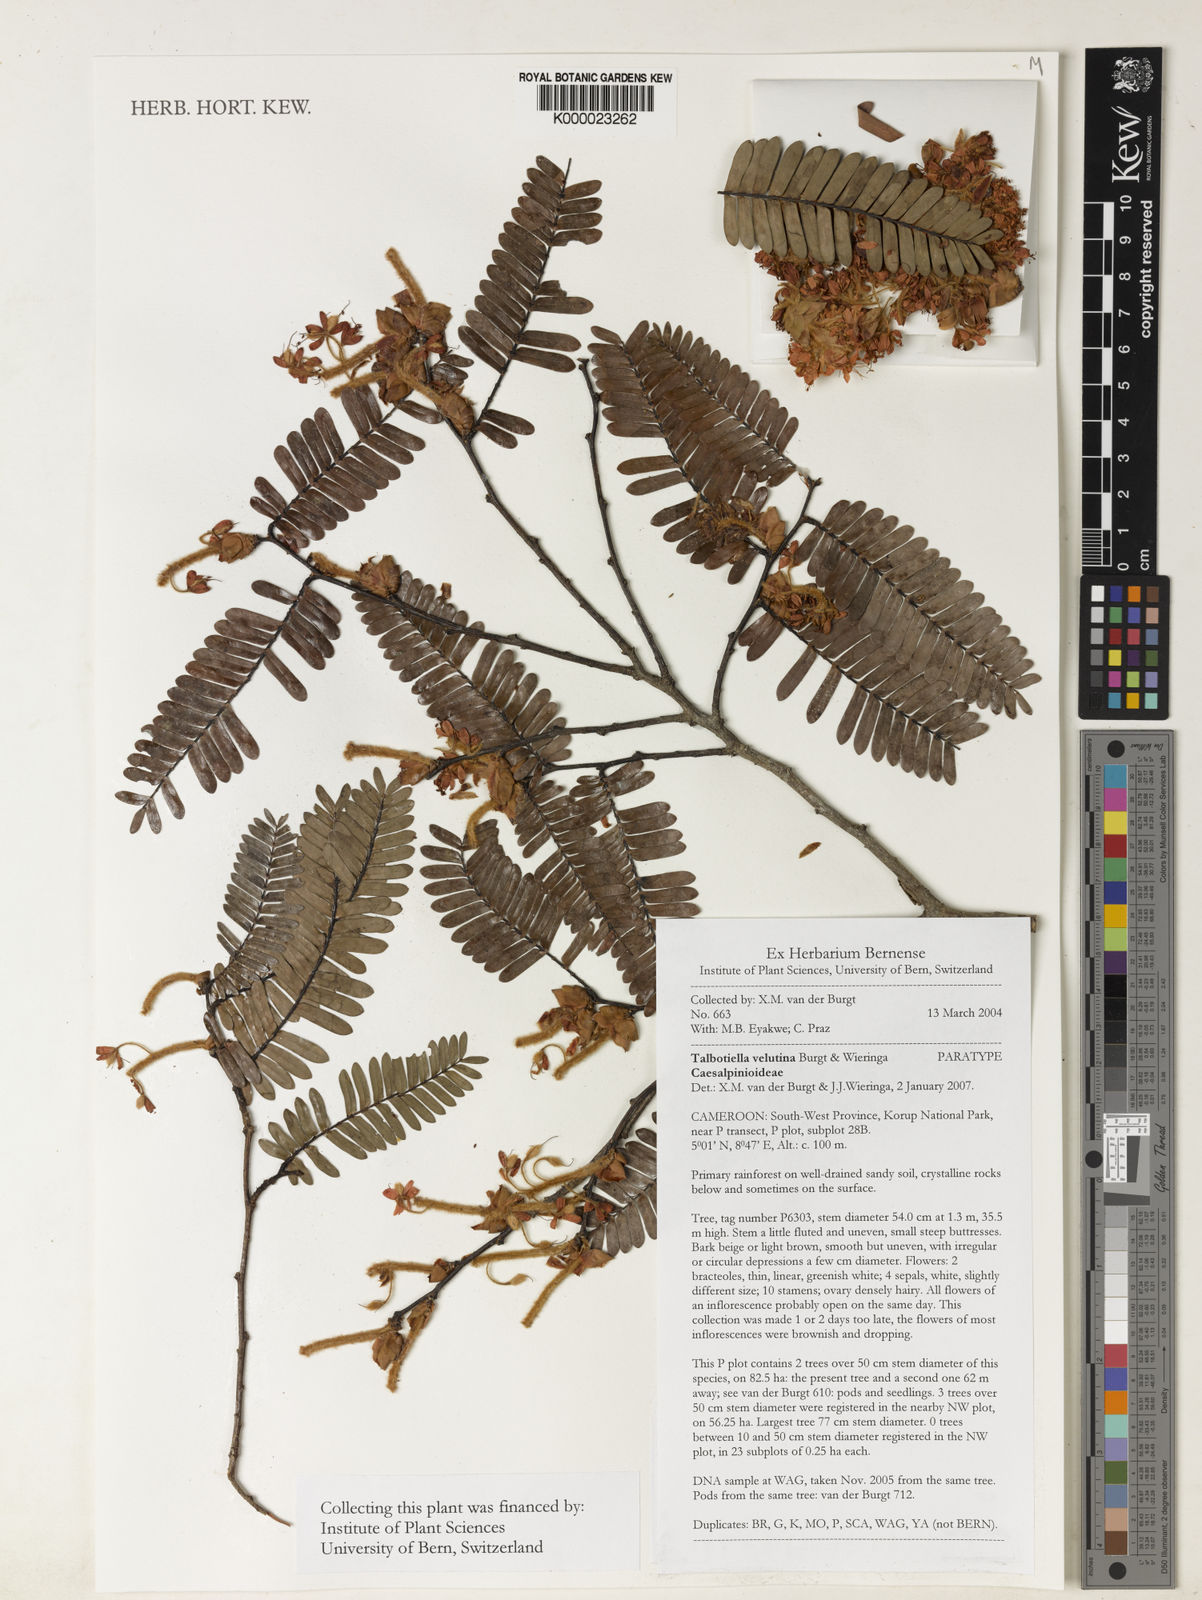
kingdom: Plantae
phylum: Tracheophyta
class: Magnoliopsida
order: Fabales
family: Fabaceae
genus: Talbotiella
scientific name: Talbotiella velutina
